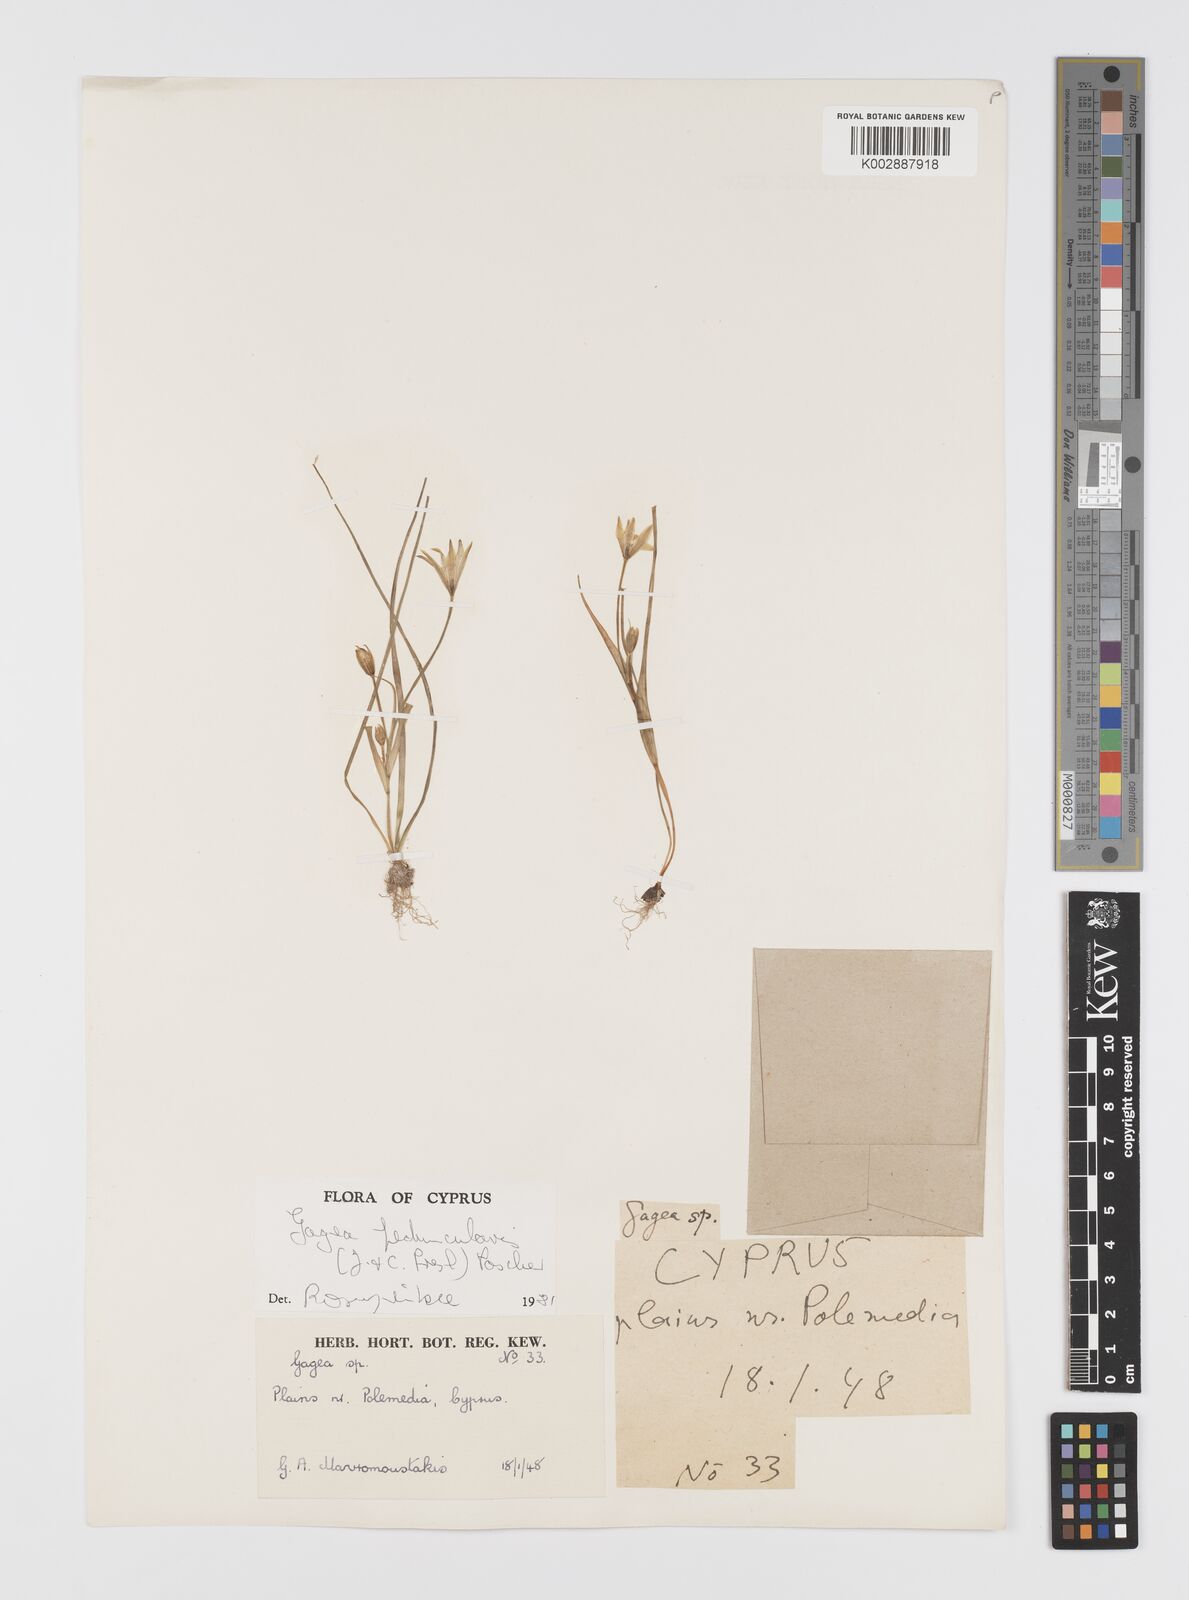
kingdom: Plantae
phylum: Tracheophyta
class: Liliopsida
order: Liliales
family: Liliaceae
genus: Gagea
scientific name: Gagea peduncularis
